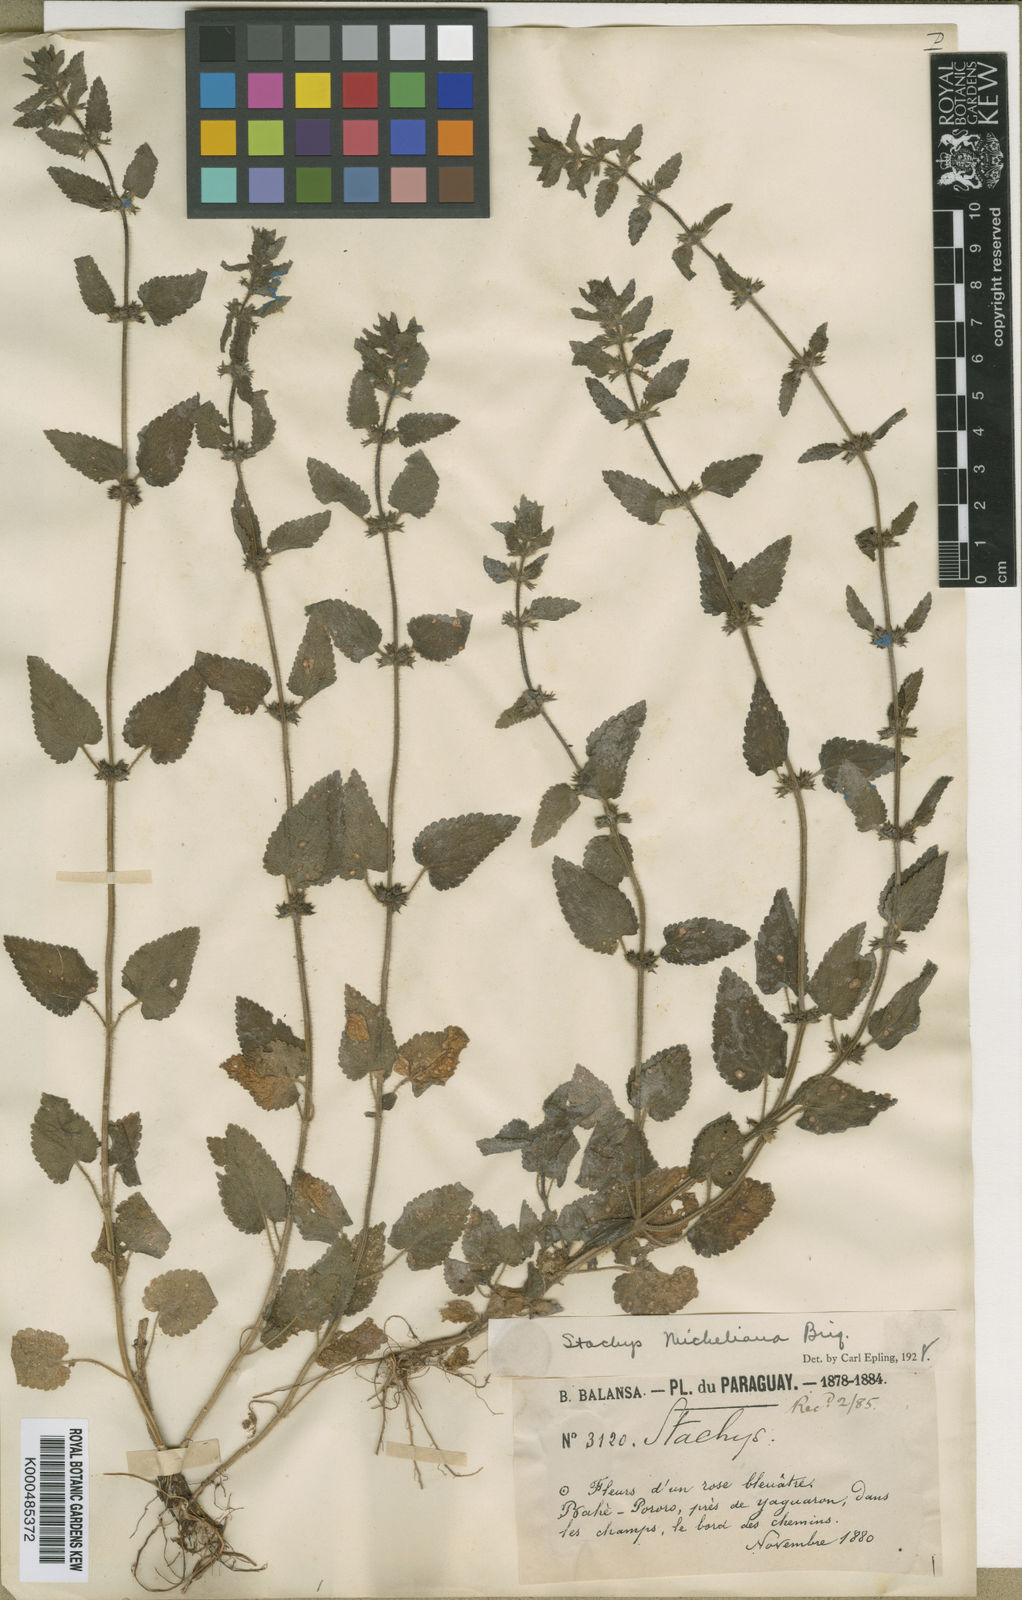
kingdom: Plantae
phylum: Tracheophyta
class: Magnoliopsida
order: Lamiales
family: Lamiaceae
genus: Stachys
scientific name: Stachys gilliesii
